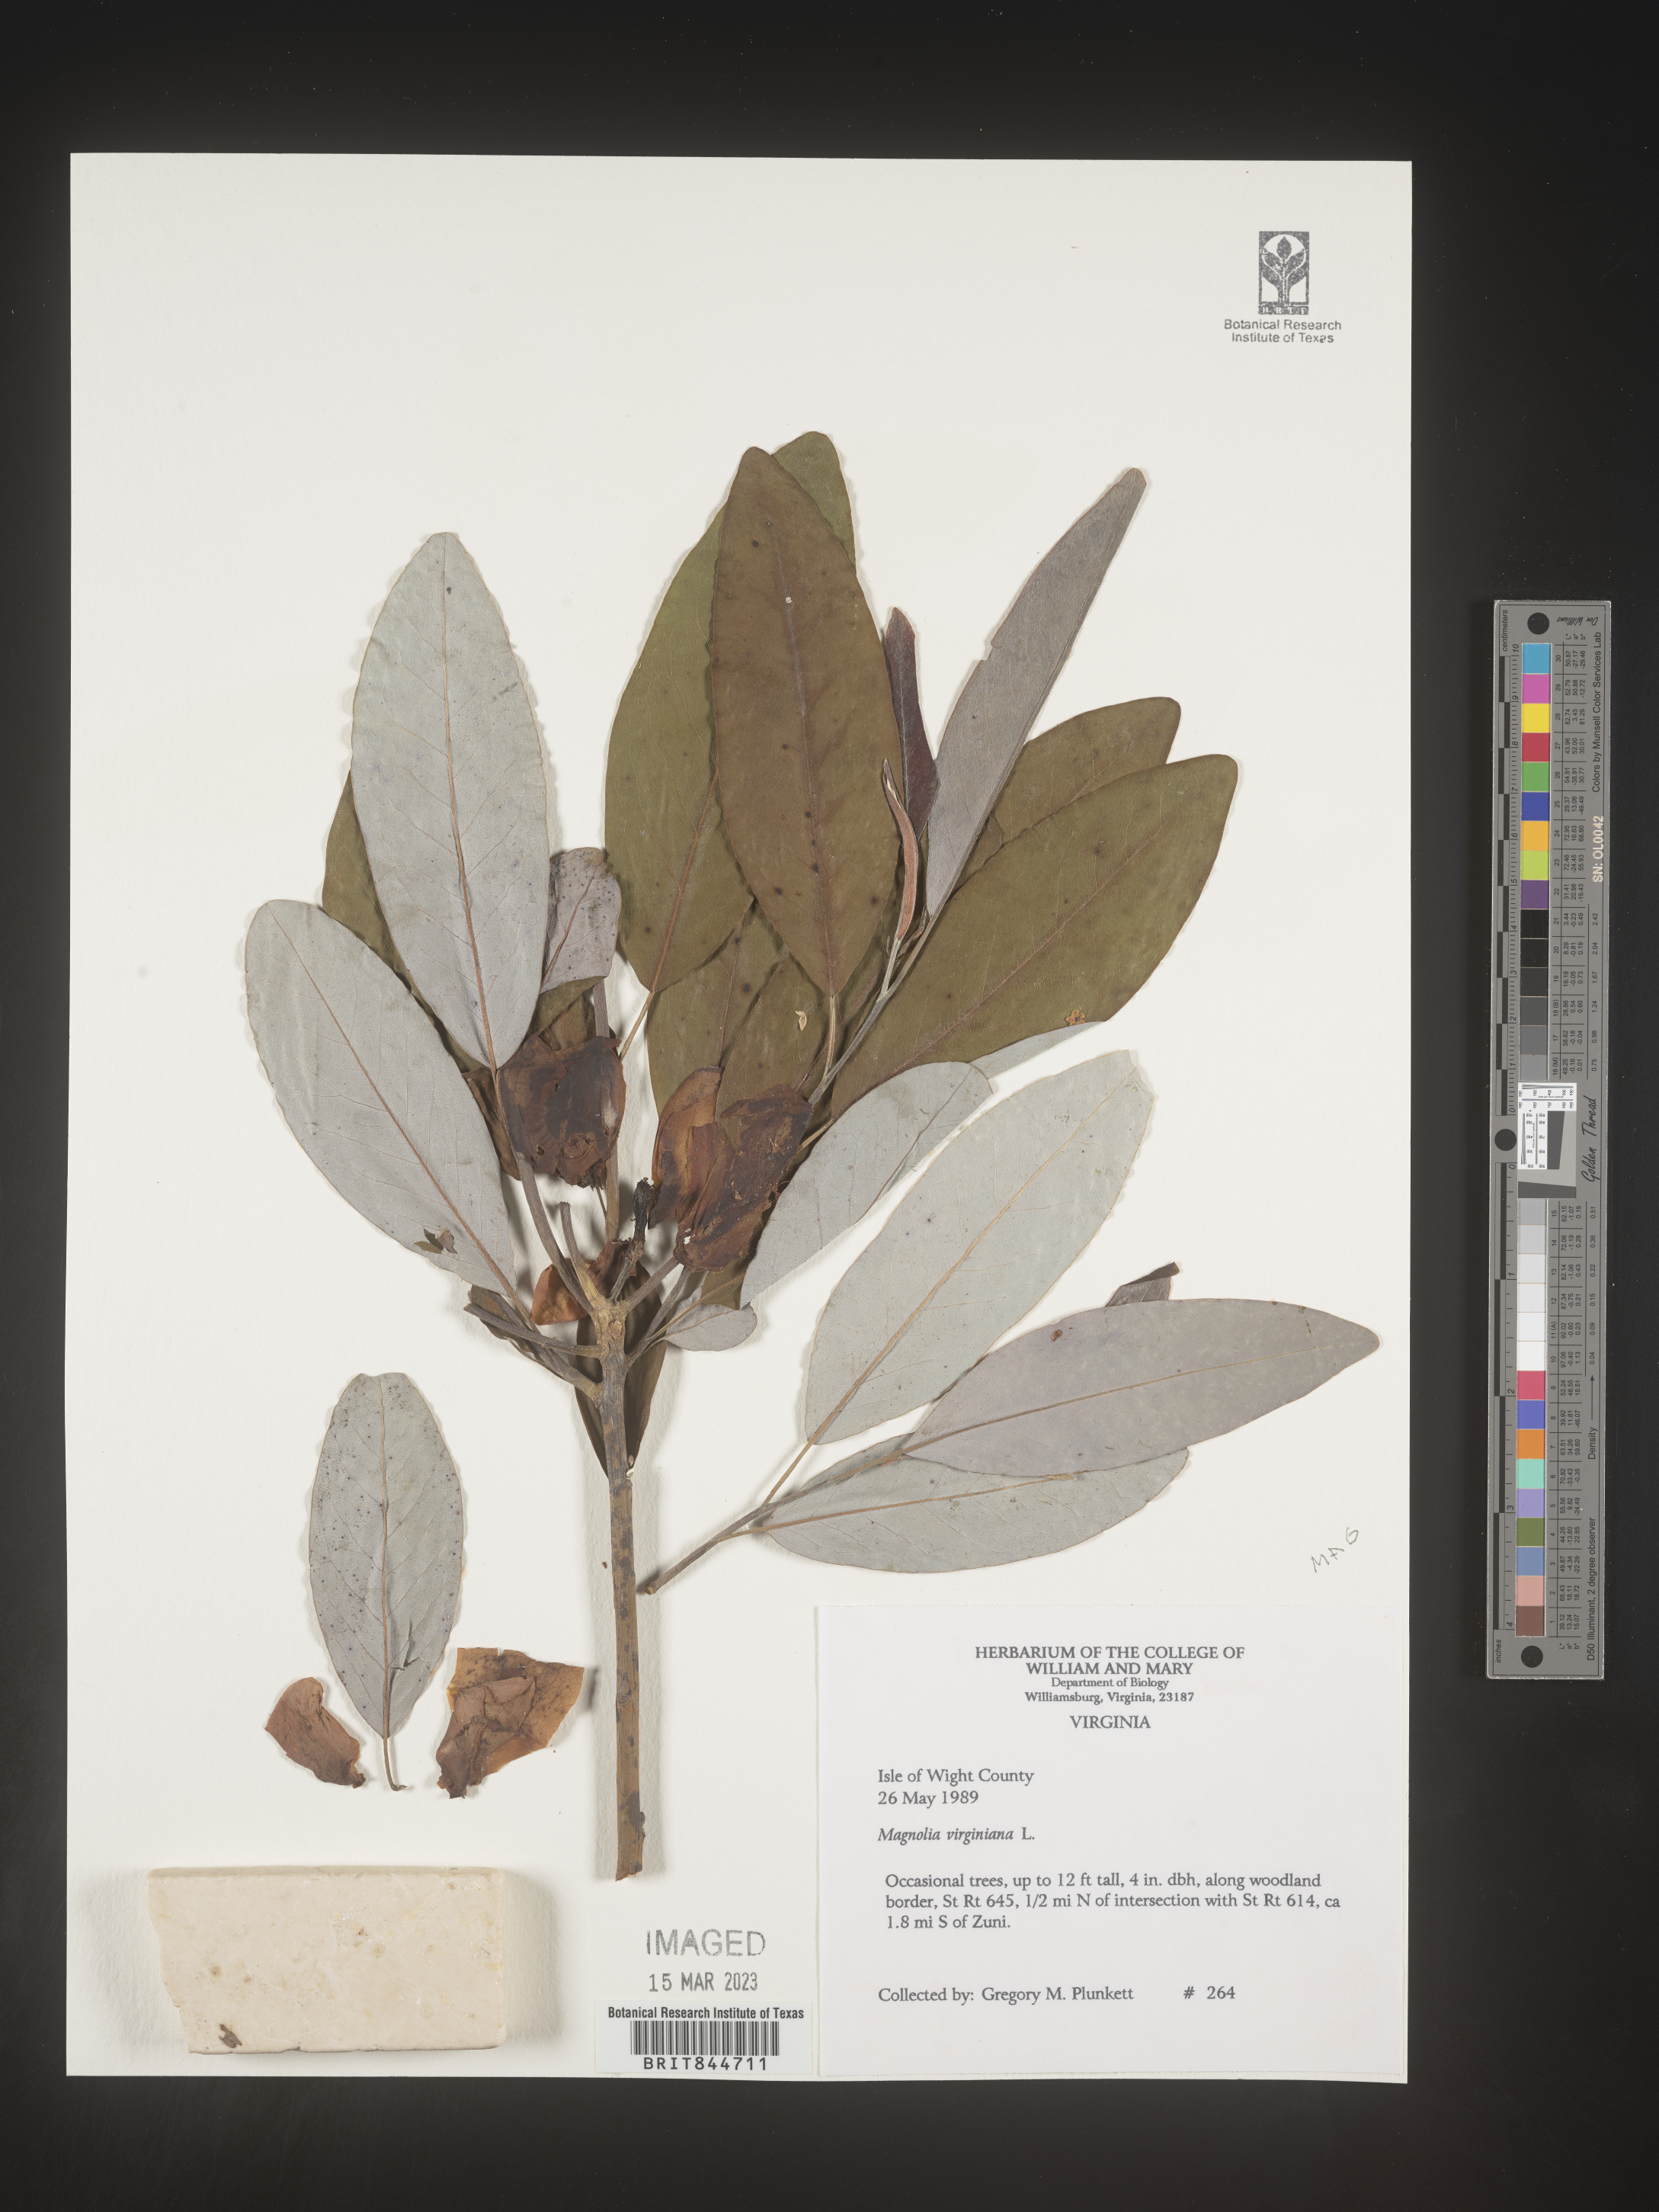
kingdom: Plantae
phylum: Tracheophyta
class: Magnoliopsida
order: Magnoliales
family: Magnoliaceae
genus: Magnolia
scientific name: Magnolia virginiana
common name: Swamp bay
